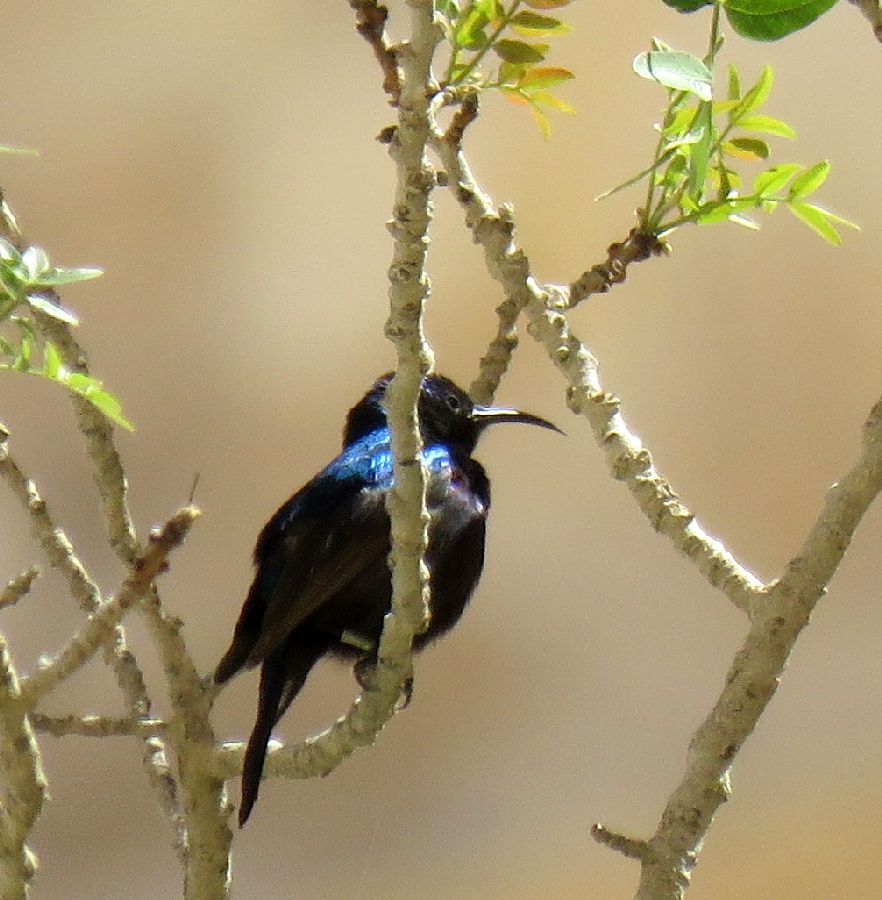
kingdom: Animalia
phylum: Chordata
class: Aves
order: Passeriformes
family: Nectariniidae
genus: Cinnyris
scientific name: Cinnyris osea
